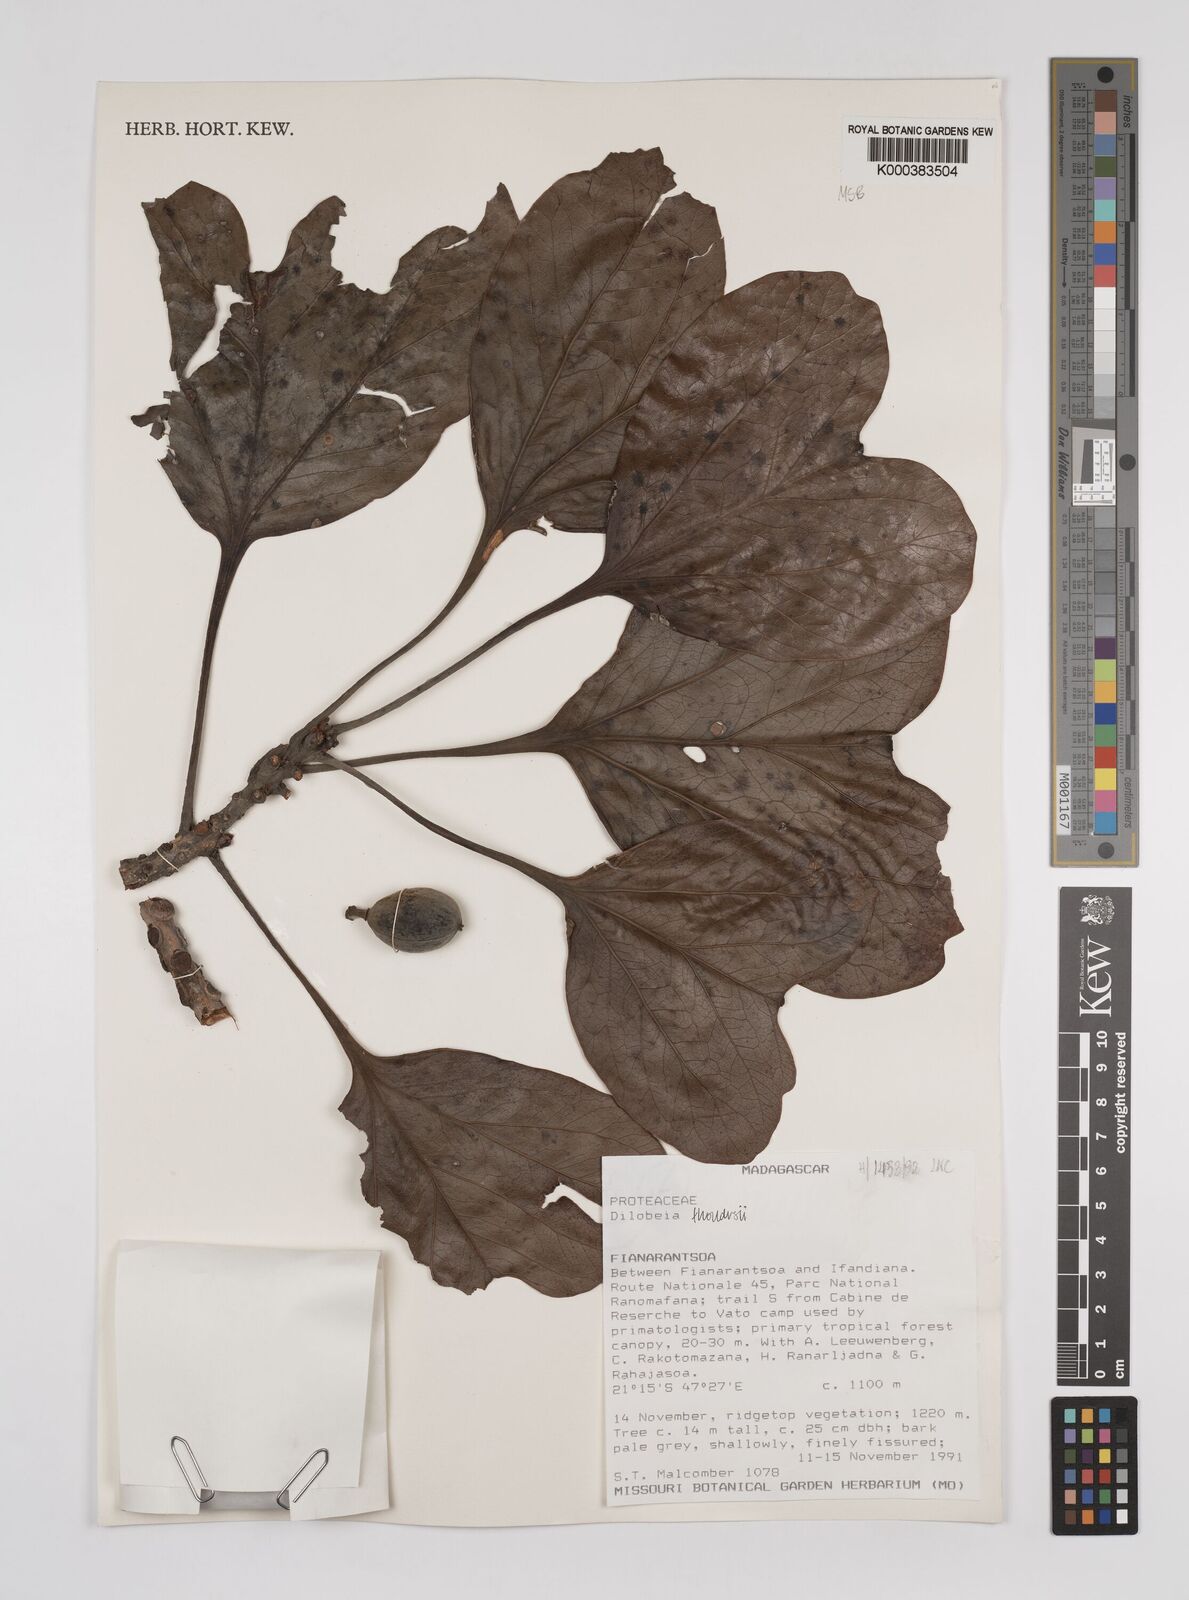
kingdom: Plantae
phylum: Tracheophyta
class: Magnoliopsida
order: Proteales
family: Proteaceae
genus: Dilobeia
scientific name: Dilobeia thouarsii
